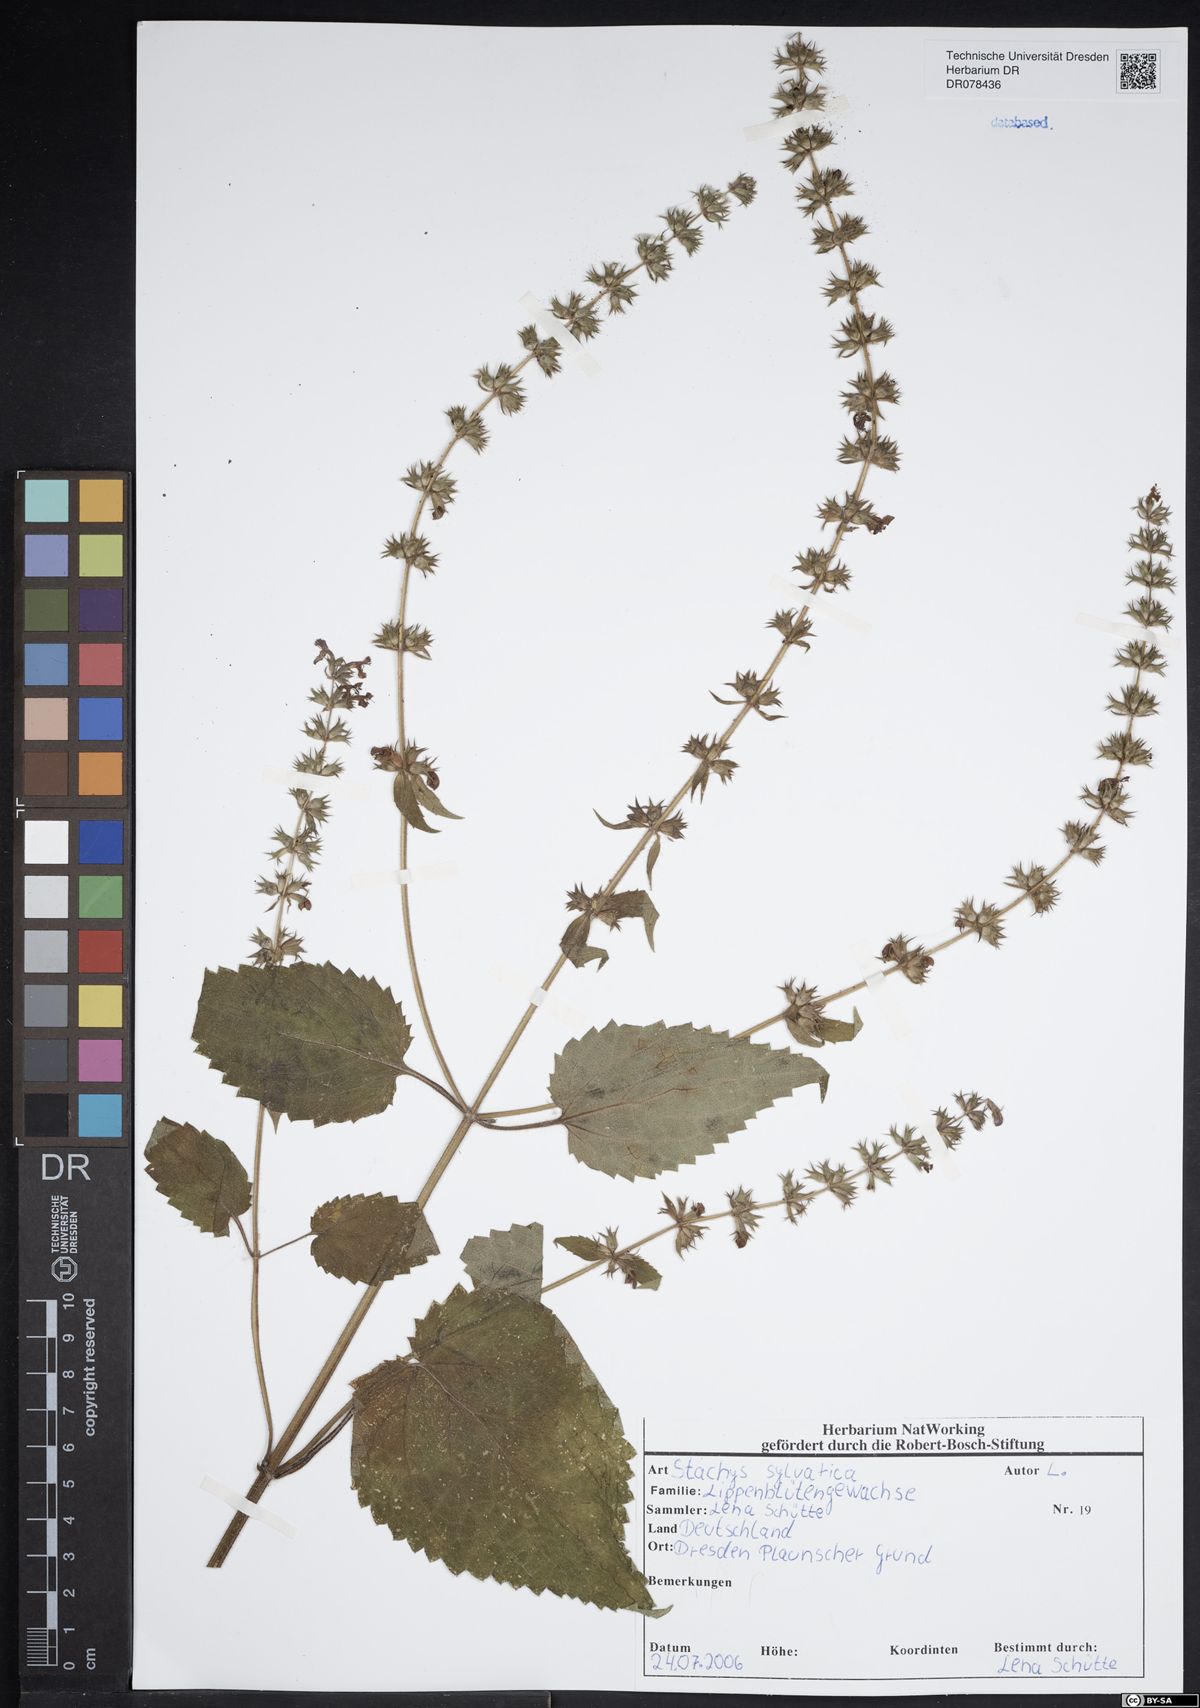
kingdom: Plantae
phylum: Tracheophyta
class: Magnoliopsida
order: Lamiales
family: Lamiaceae
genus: Stachys
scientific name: Stachys sylvatica
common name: Hedge woundwort
